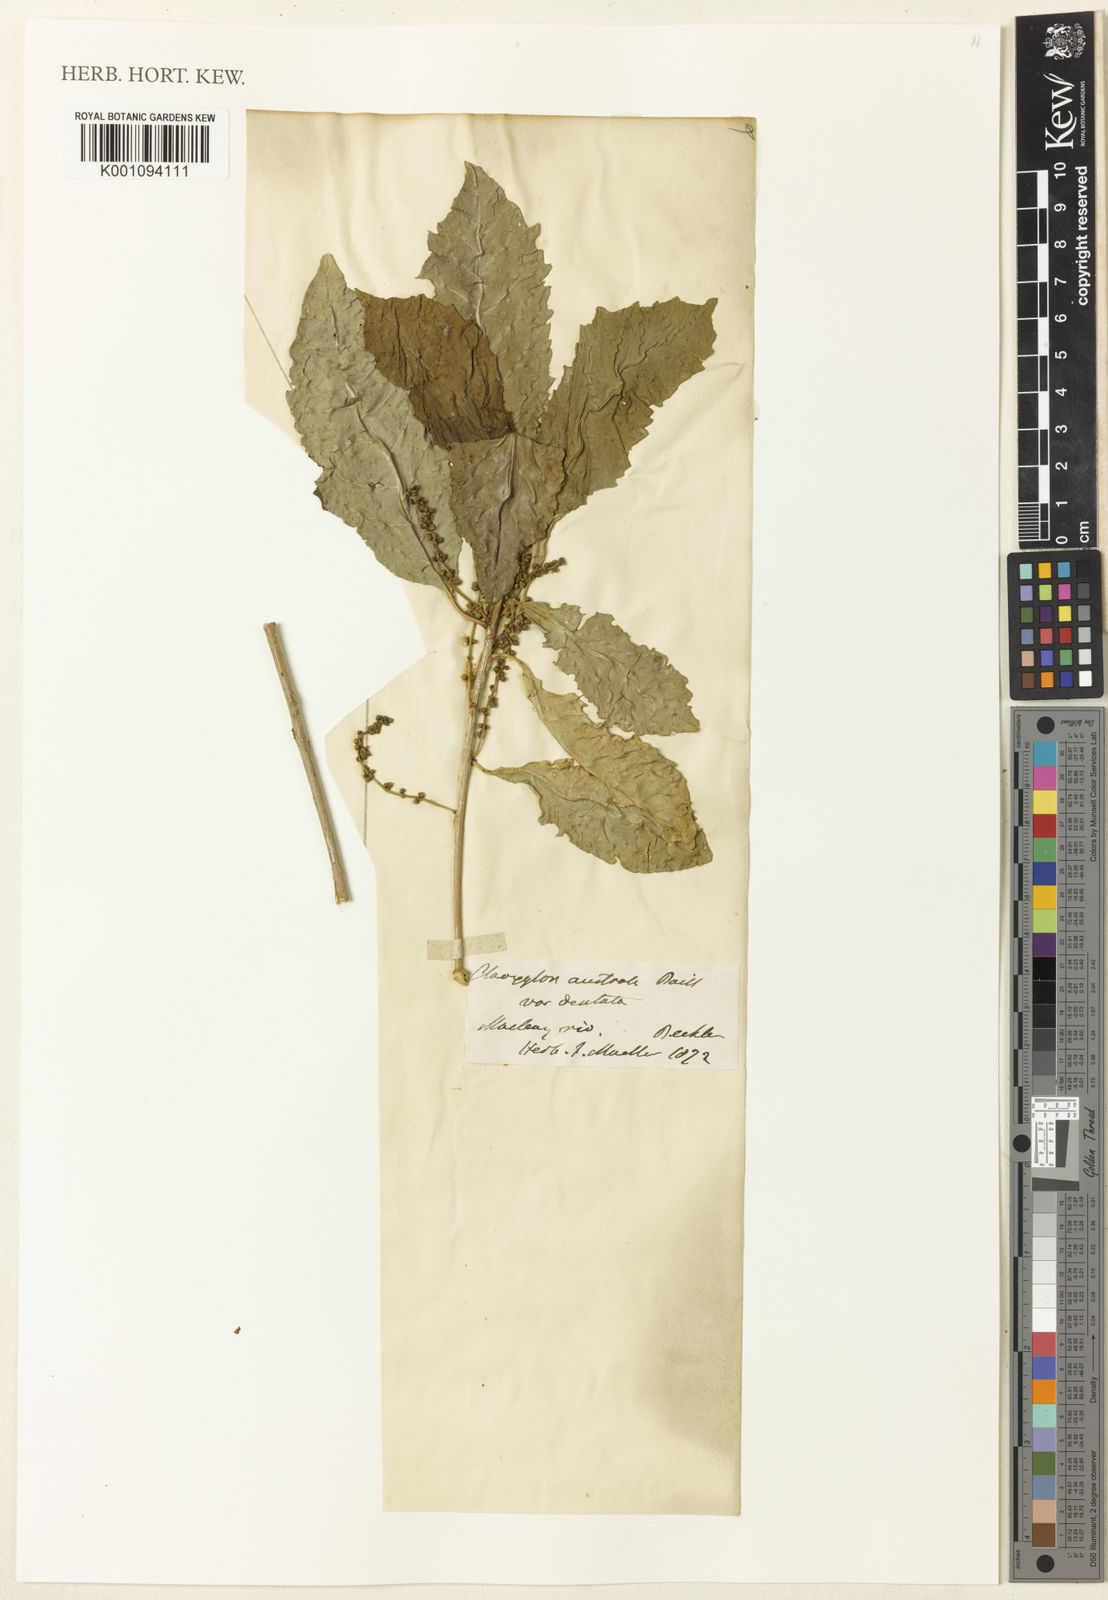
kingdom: Plantae
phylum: Tracheophyta
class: Magnoliopsida
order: Malpighiales
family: Euphorbiaceae
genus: Claoxylon
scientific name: Claoxylon
